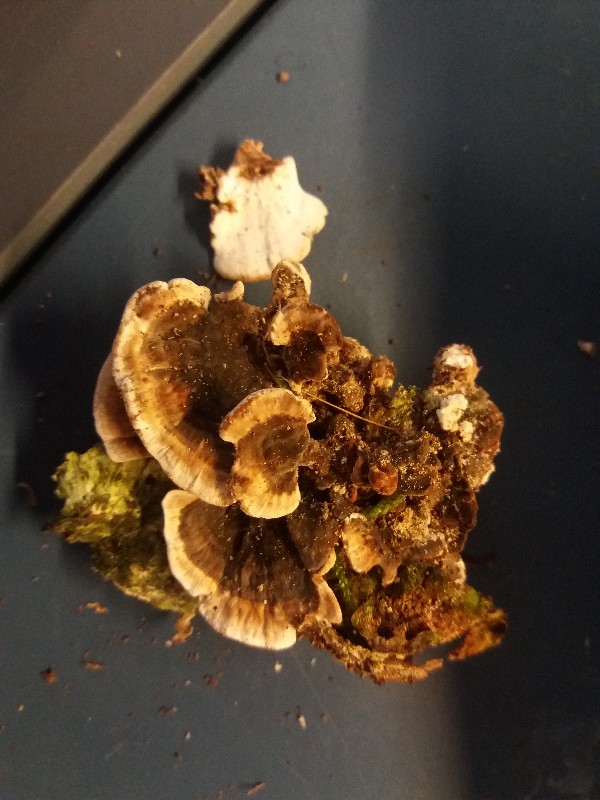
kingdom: Fungi
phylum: Basidiomycota
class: Agaricomycetes
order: Polyporales
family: Polyporaceae
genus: Trametes
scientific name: Trametes versicolor
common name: broget læderporesvamp
